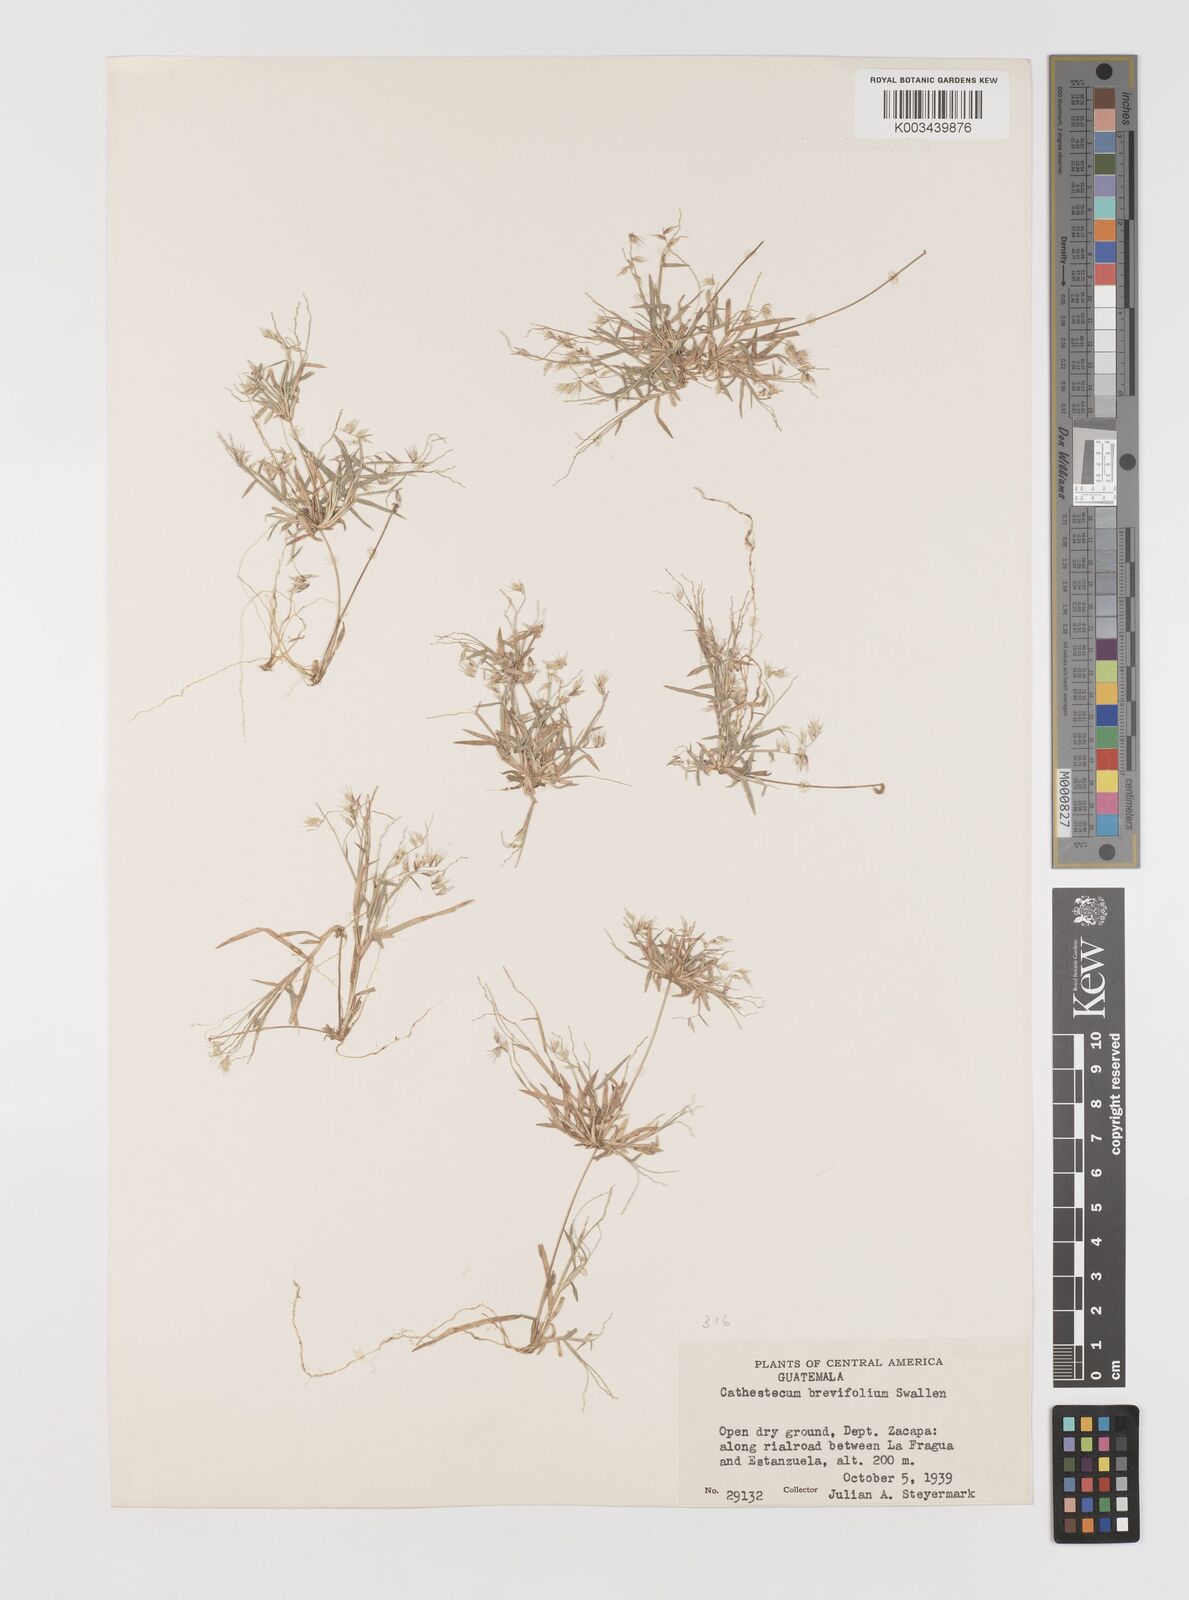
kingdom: Plantae
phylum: Tracheophyta
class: Liliopsida
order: Poales
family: Poaceae
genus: Bouteloua
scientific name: Bouteloua diversispicula
